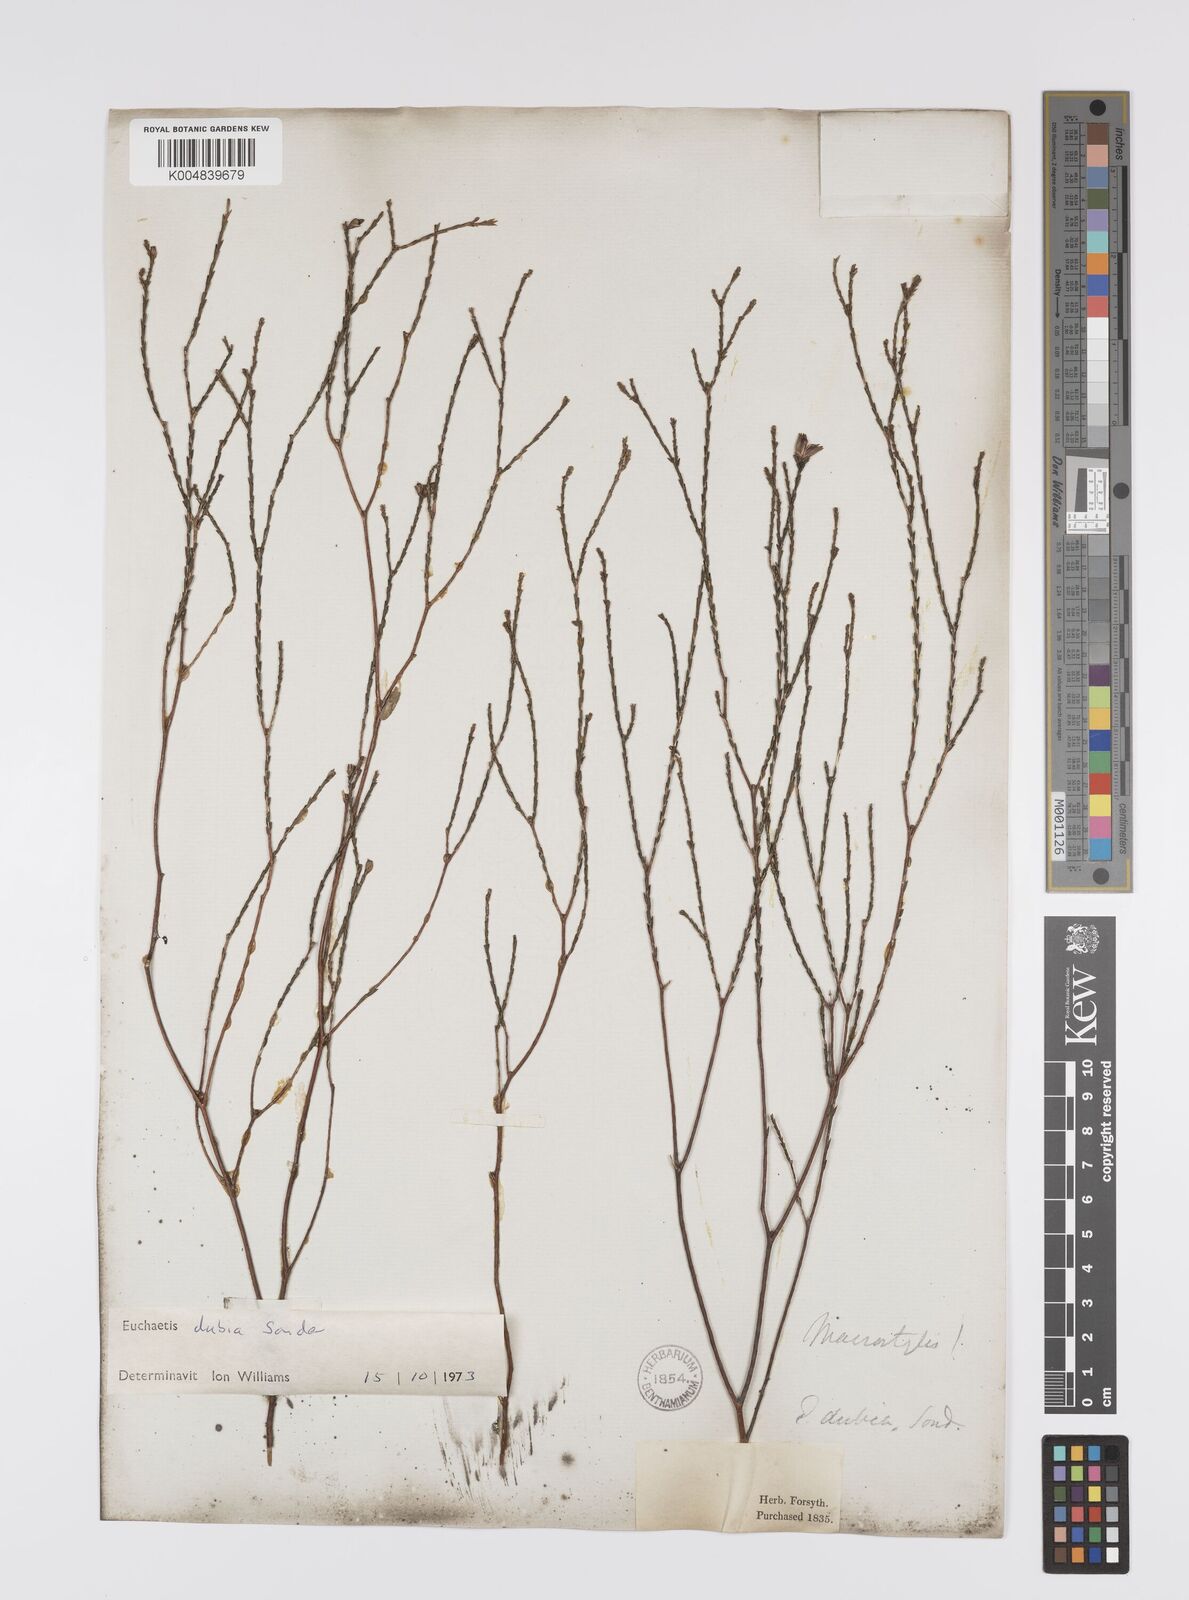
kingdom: Plantae
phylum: Tracheophyta
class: Magnoliopsida
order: Sapindales
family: Rutaceae
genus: Macrostylis
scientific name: Macrostylis cassiopoides
